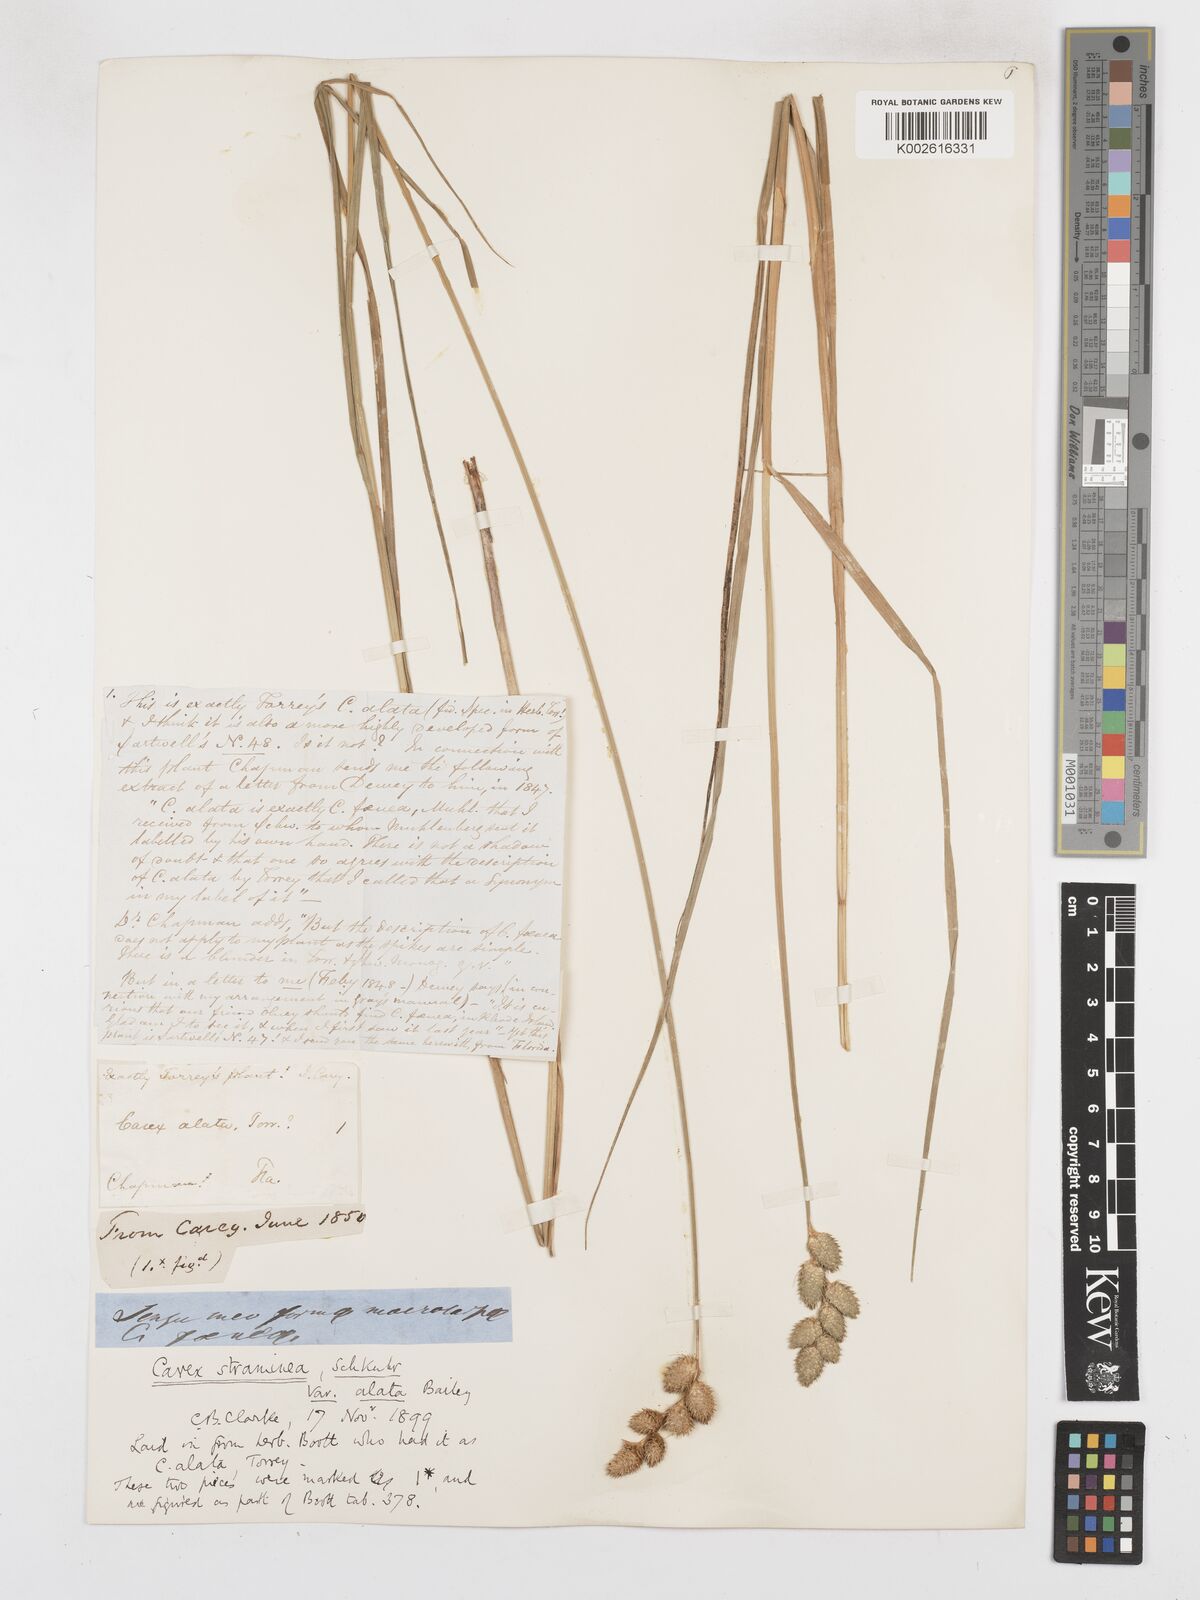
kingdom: Plantae
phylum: Tracheophyta
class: Liliopsida
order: Poales
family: Cyperaceae
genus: Carex
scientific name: Carex alata
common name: Broad-winged sedge
